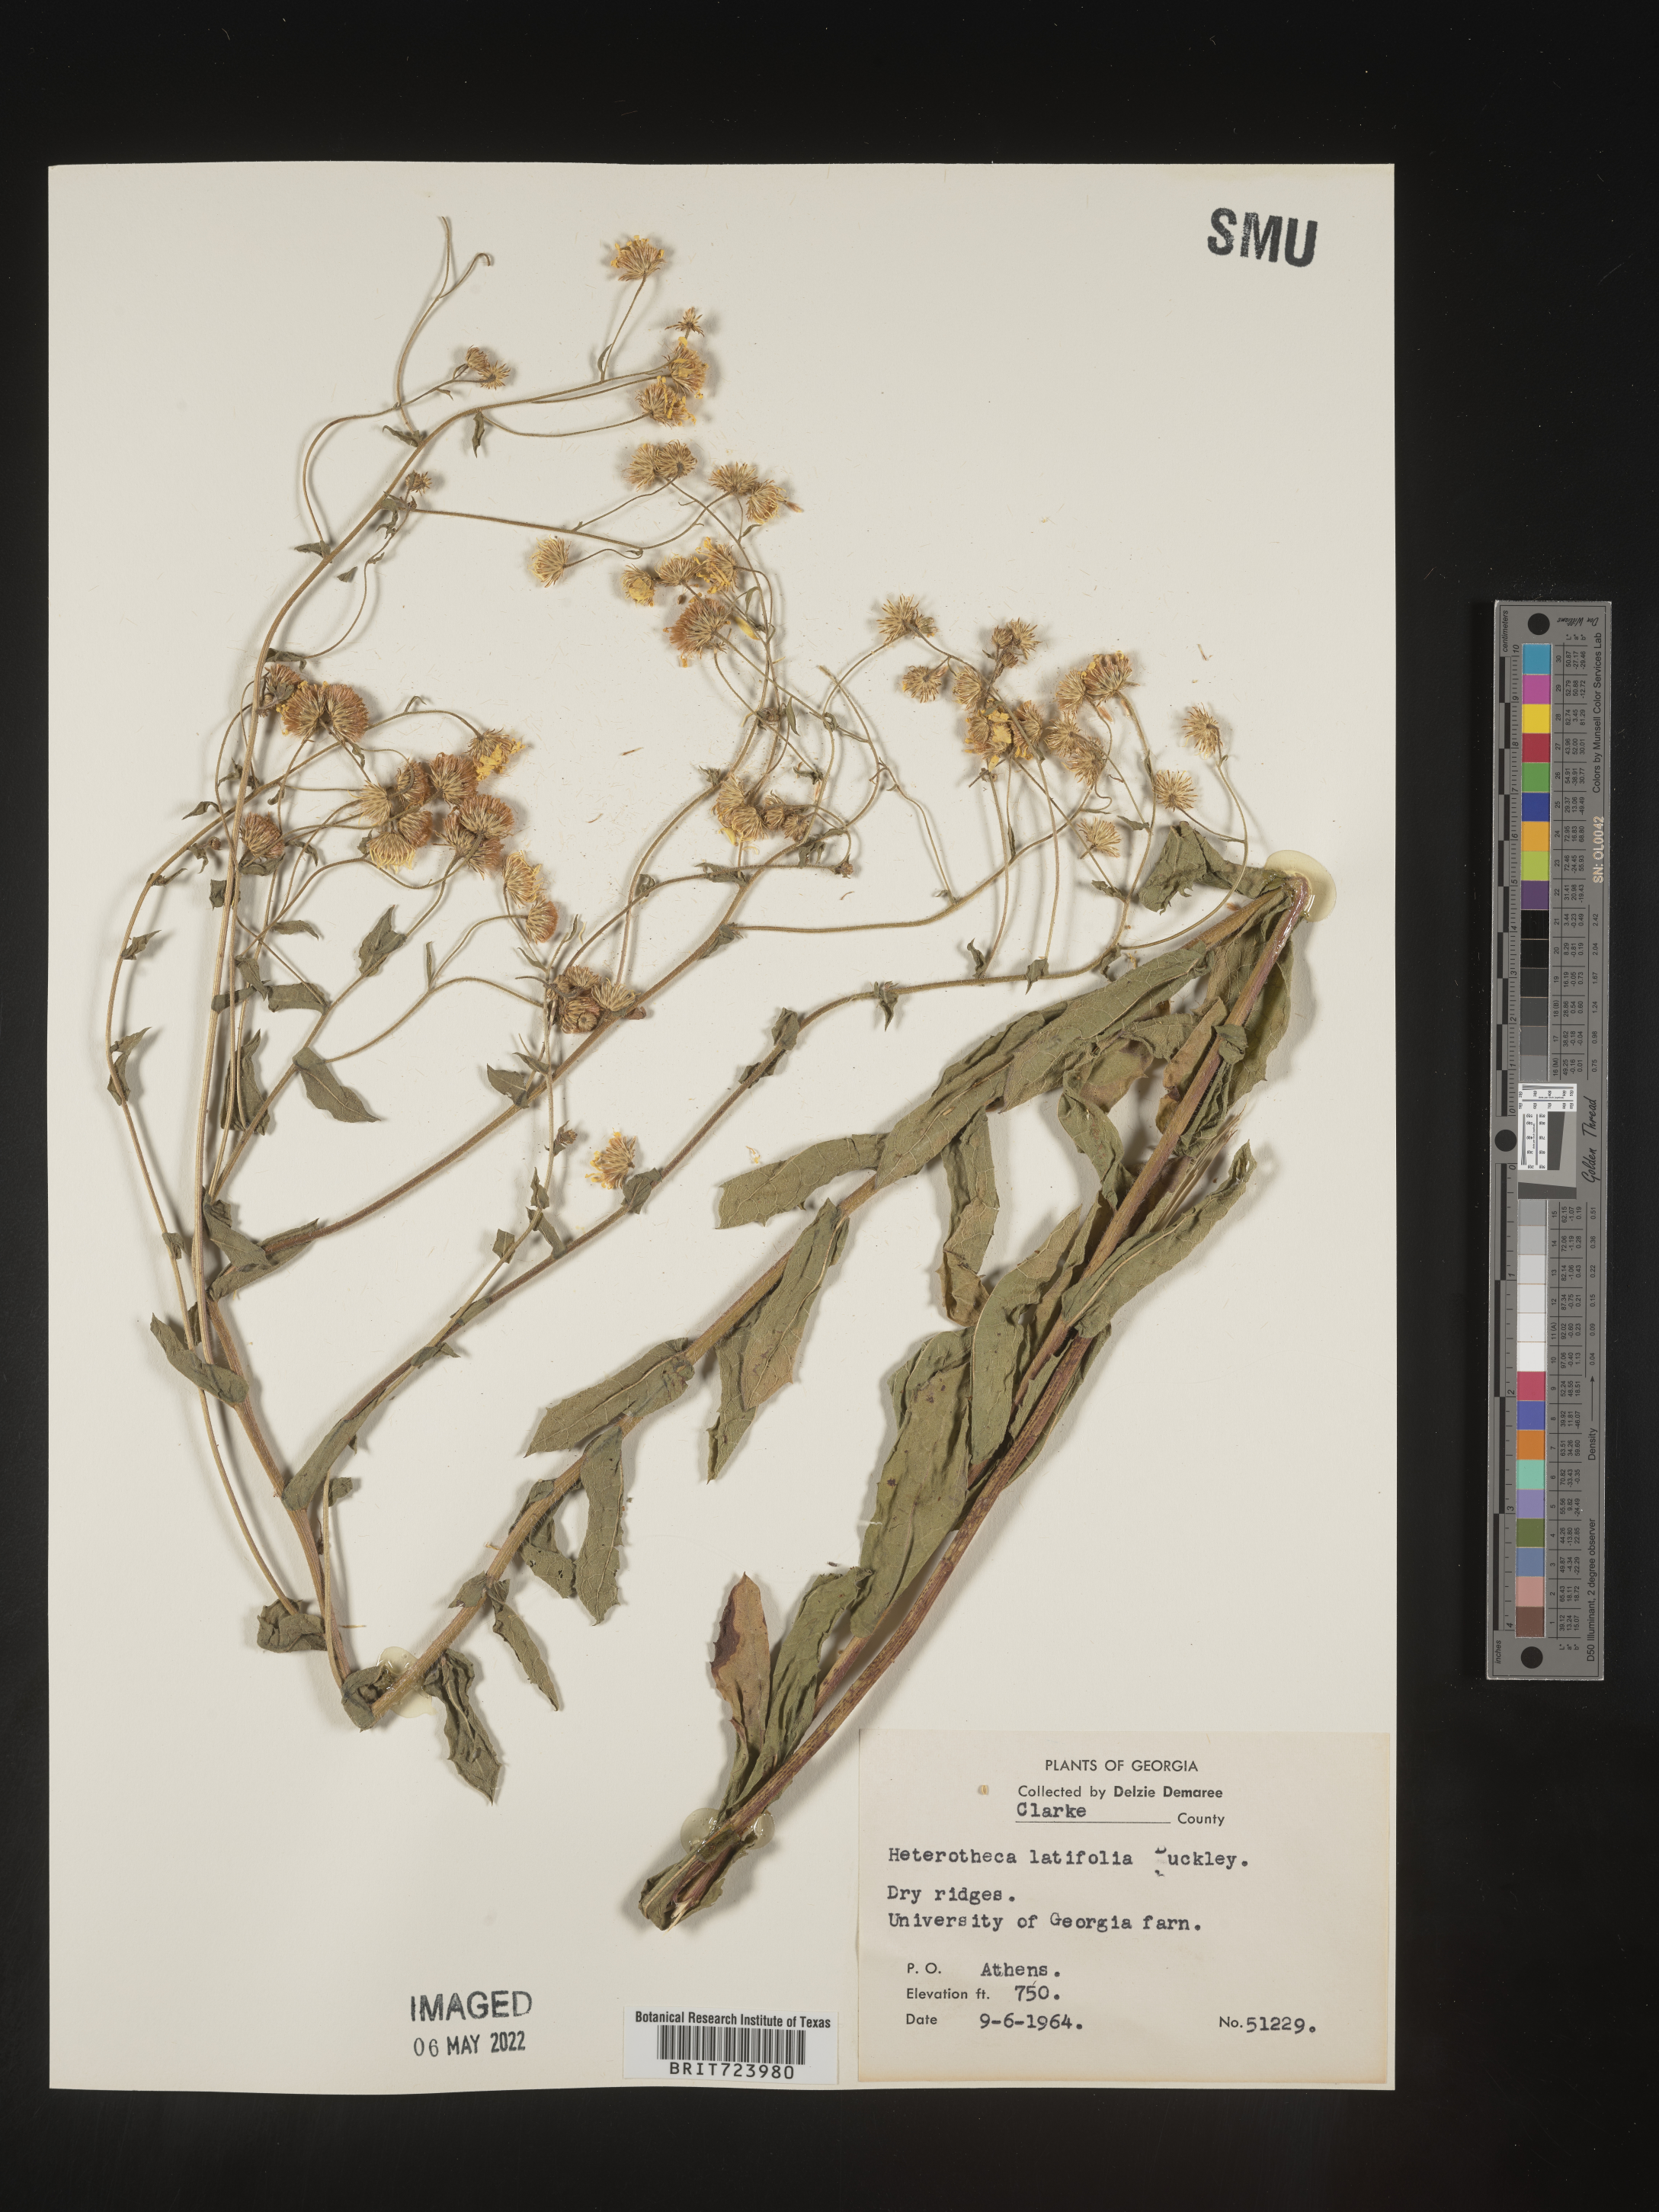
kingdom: Plantae
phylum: Tracheophyta
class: Magnoliopsida
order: Asterales
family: Asteraceae
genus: Heterotheca
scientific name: Heterotheca subaxillaris
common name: Camphorweed
